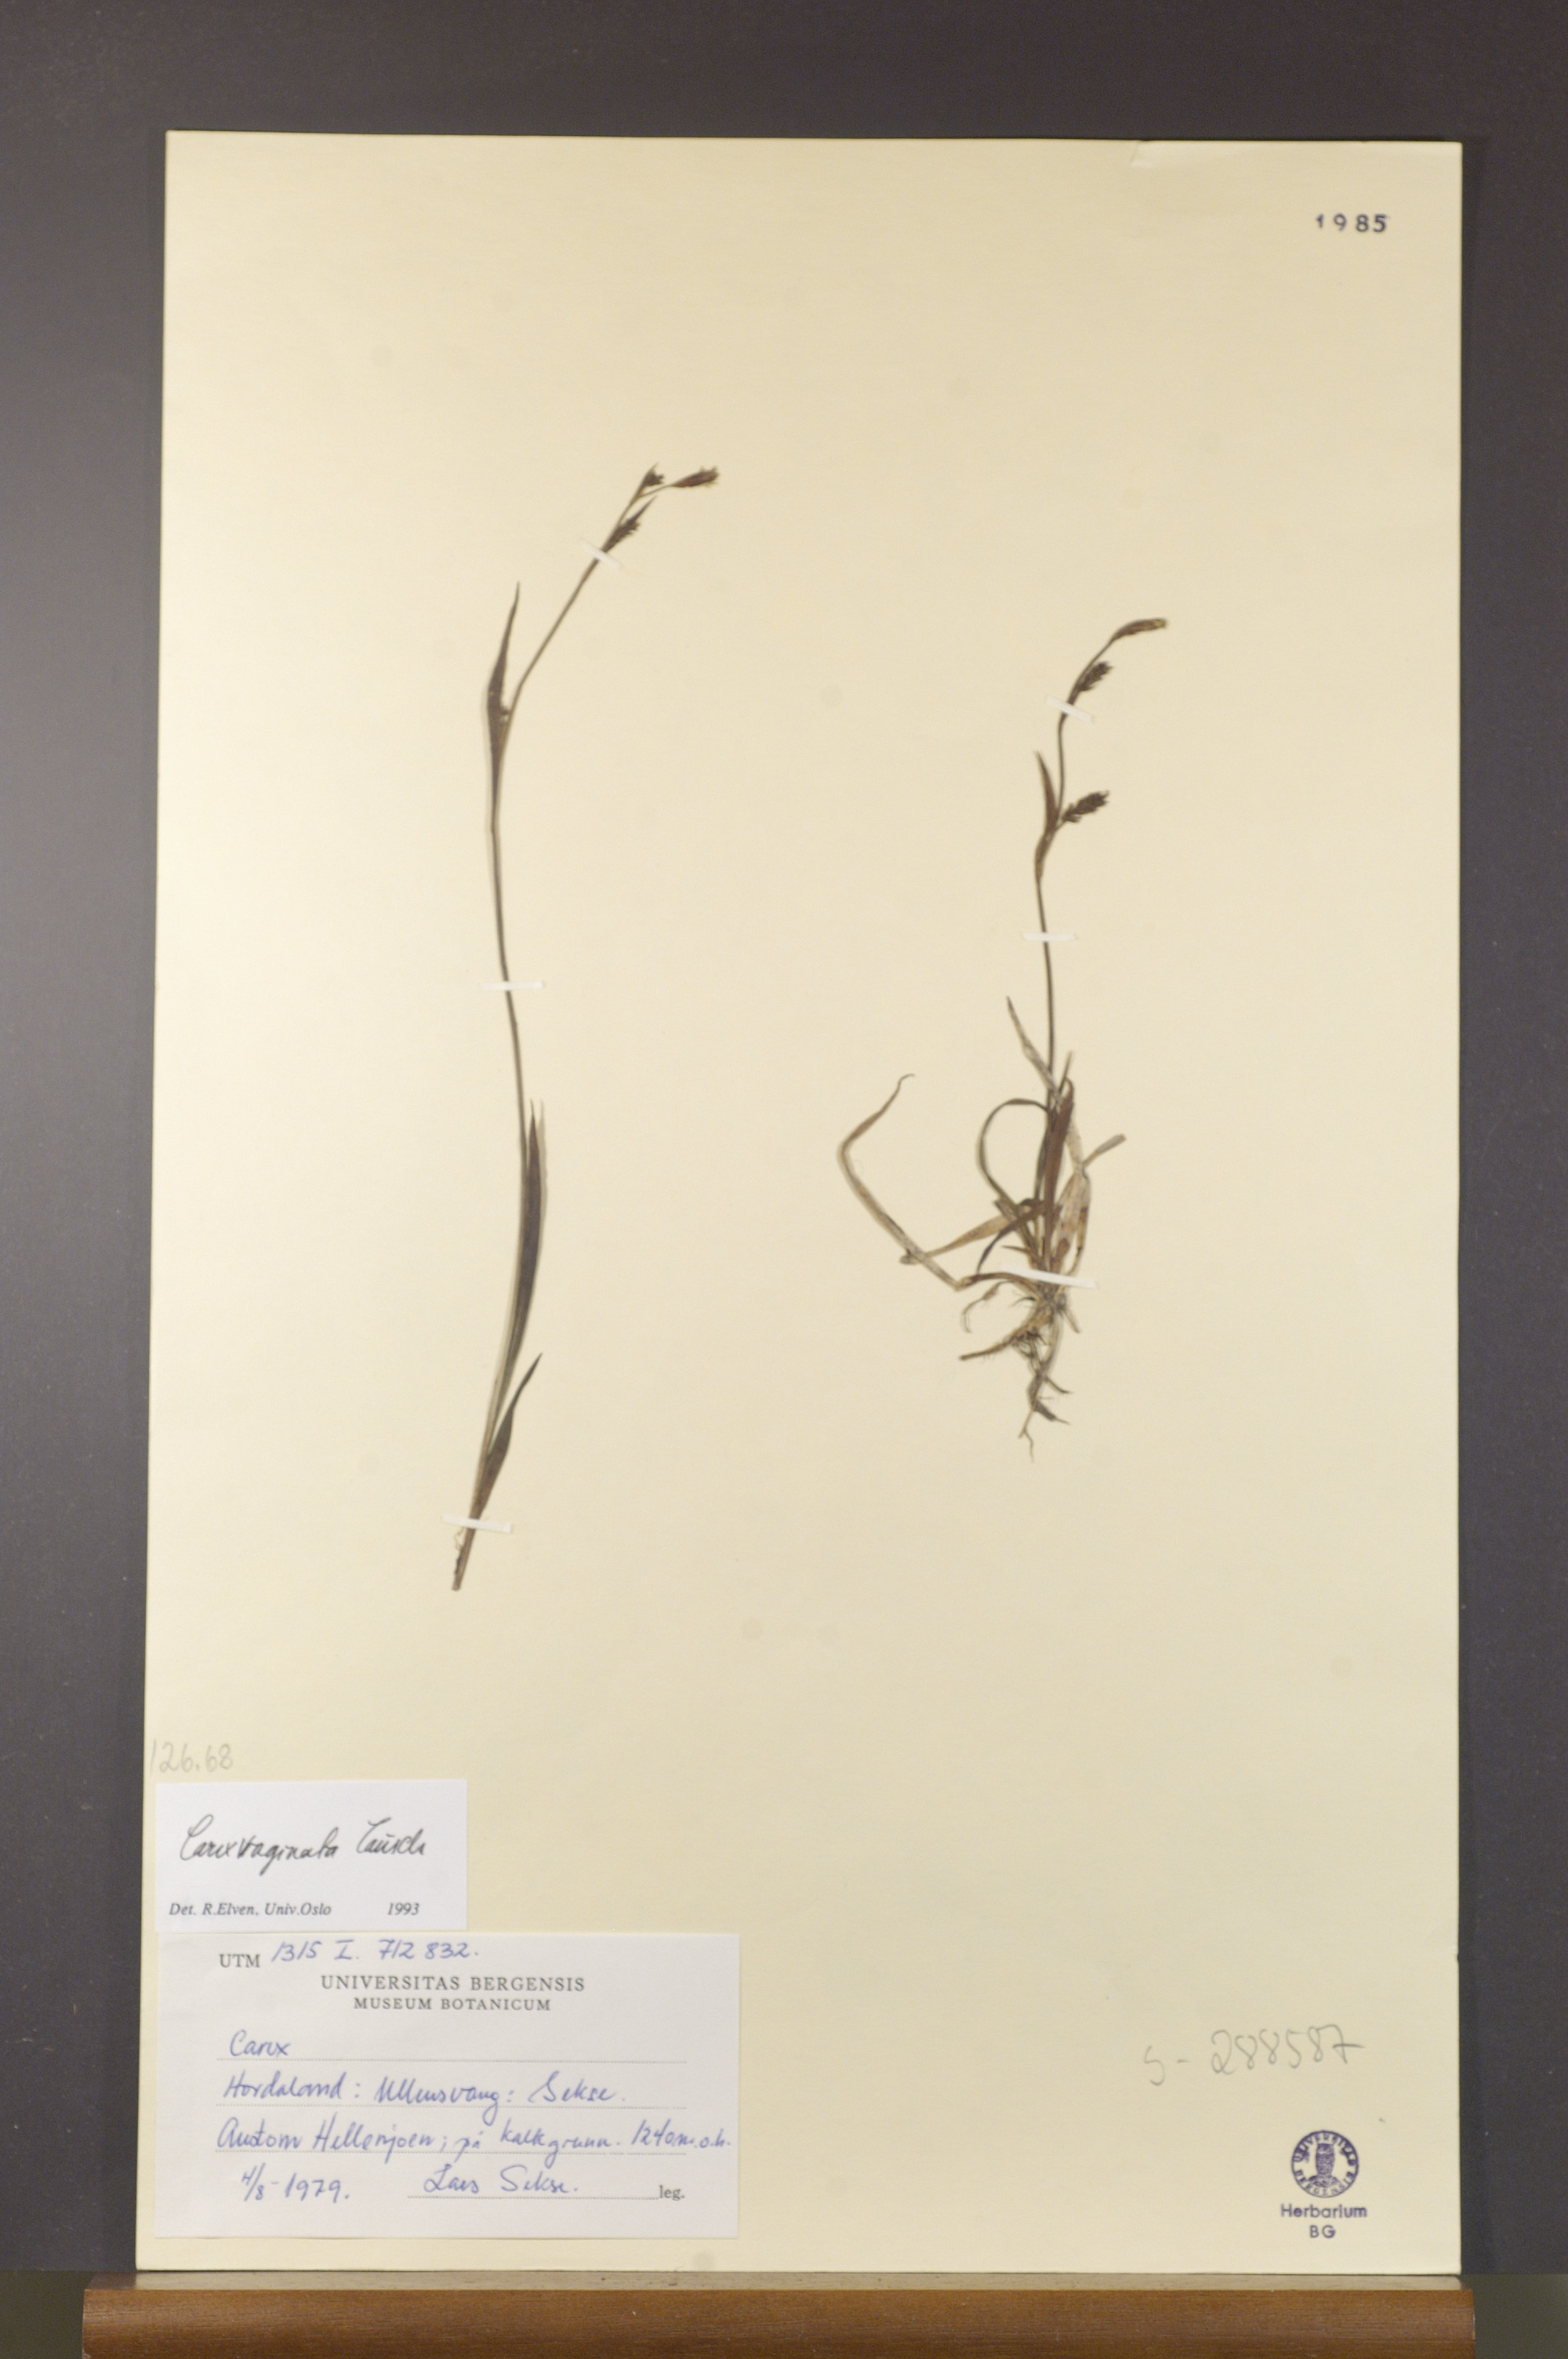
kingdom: Plantae
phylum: Tracheophyta
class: Liliopsida
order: Poales
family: Cyperaceae
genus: Carex
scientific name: Carex vaginata
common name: Sheathed sedge
